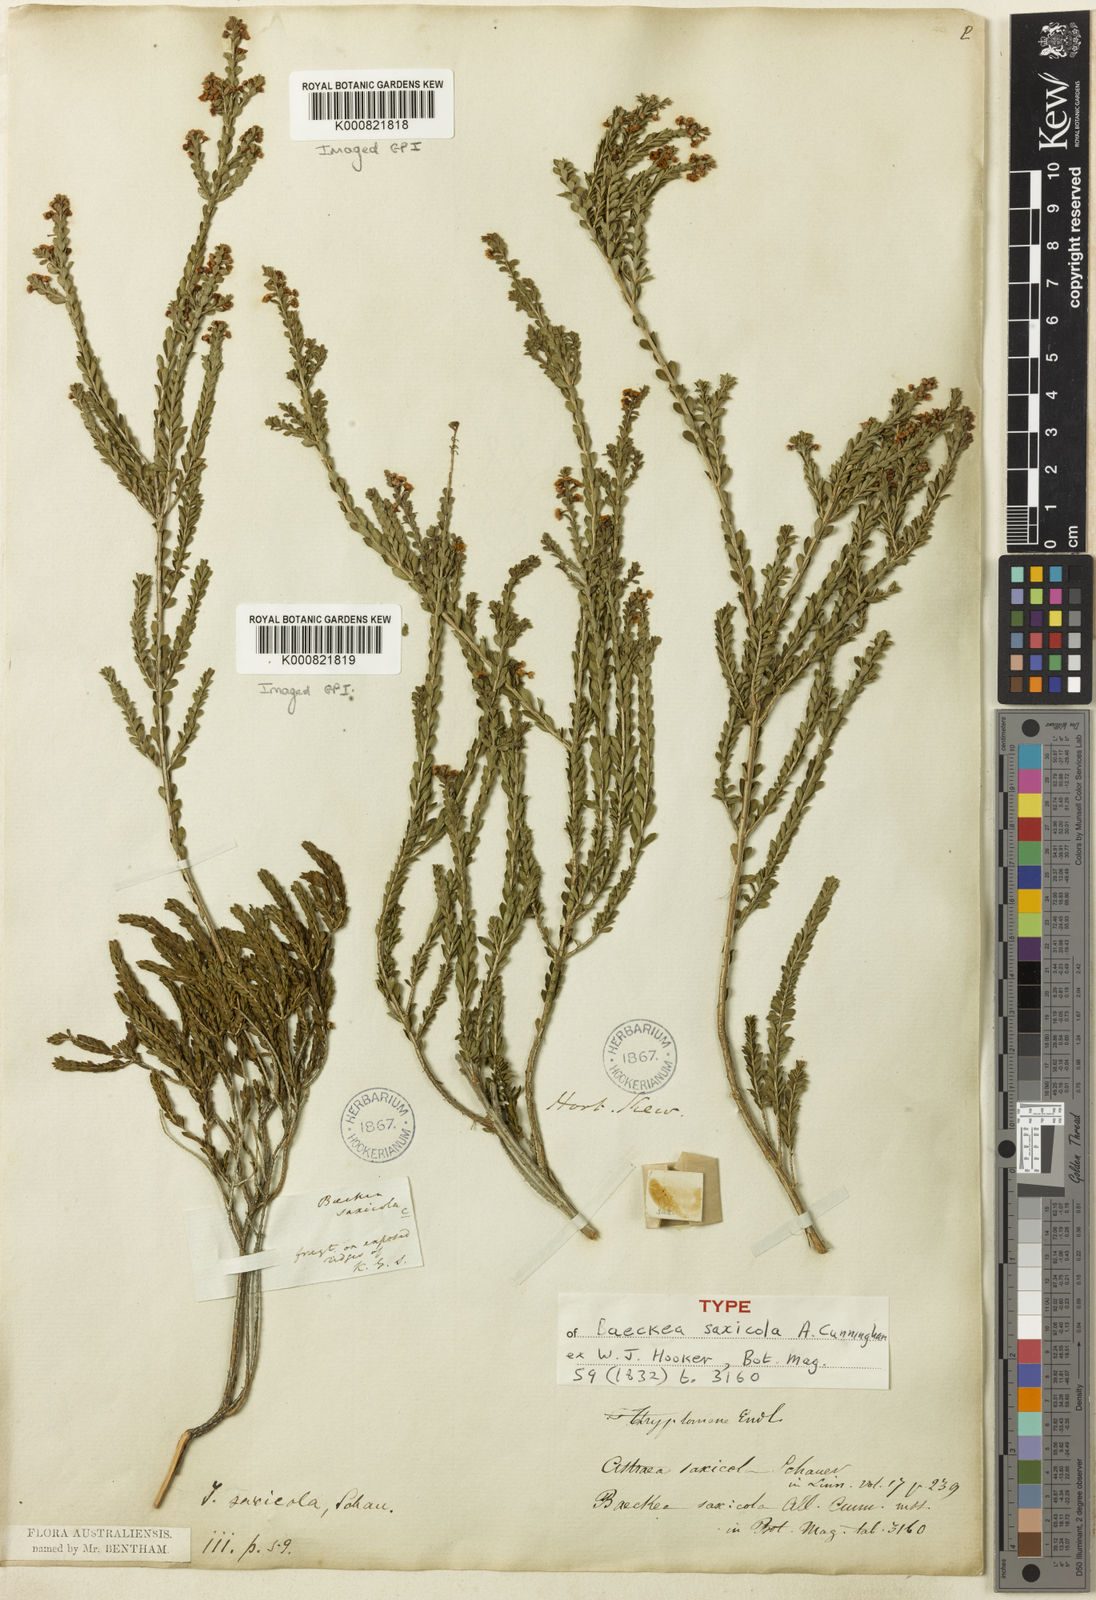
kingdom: Plantae
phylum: Tracheophyta
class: Magnoliopsida
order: Myrtales
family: Myrtaceae
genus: Thryptomene
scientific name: Thryptomene saxicola
